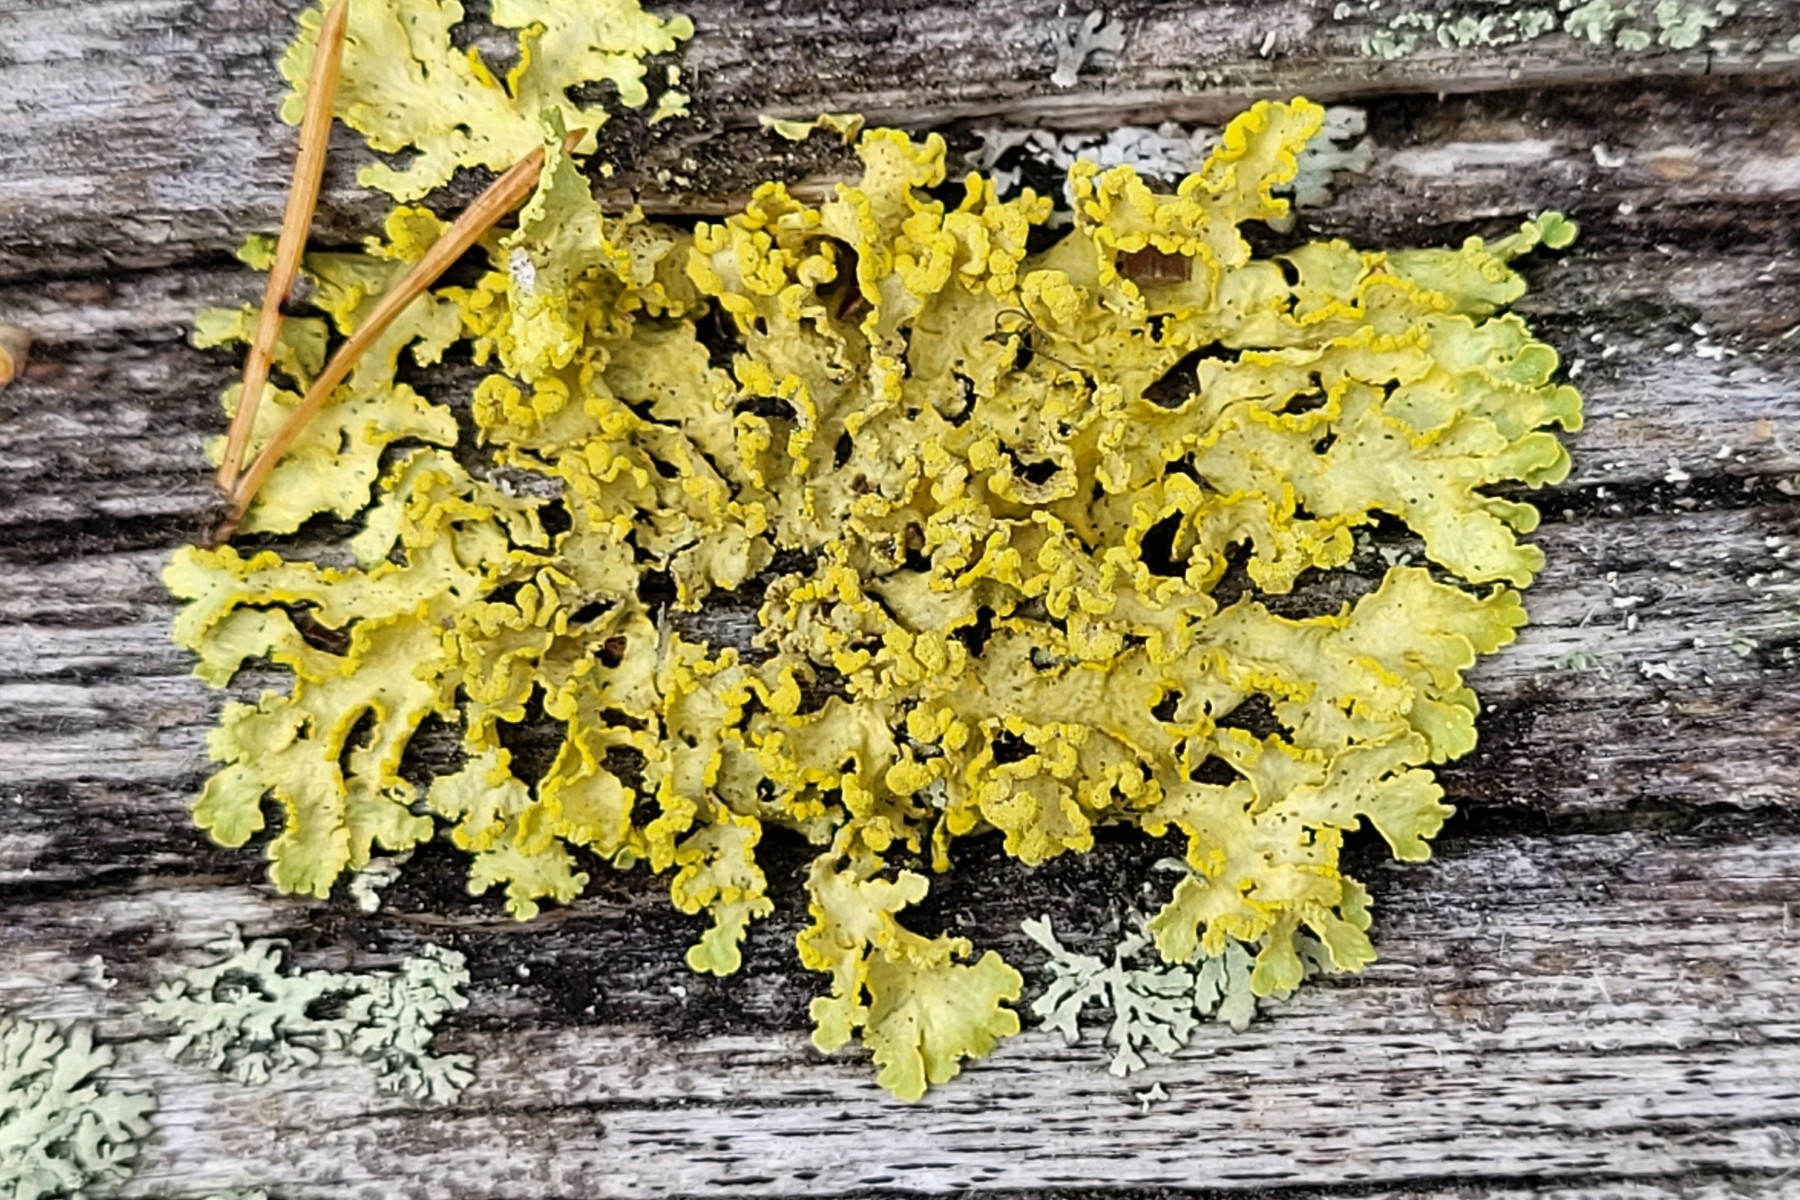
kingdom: Fungi
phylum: Ascomycota
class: Lecanoromycetes
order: Lecanorales
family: Parmeliaceae
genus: Vulpicida
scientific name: Vulpicida pinastri
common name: gul kruslav
